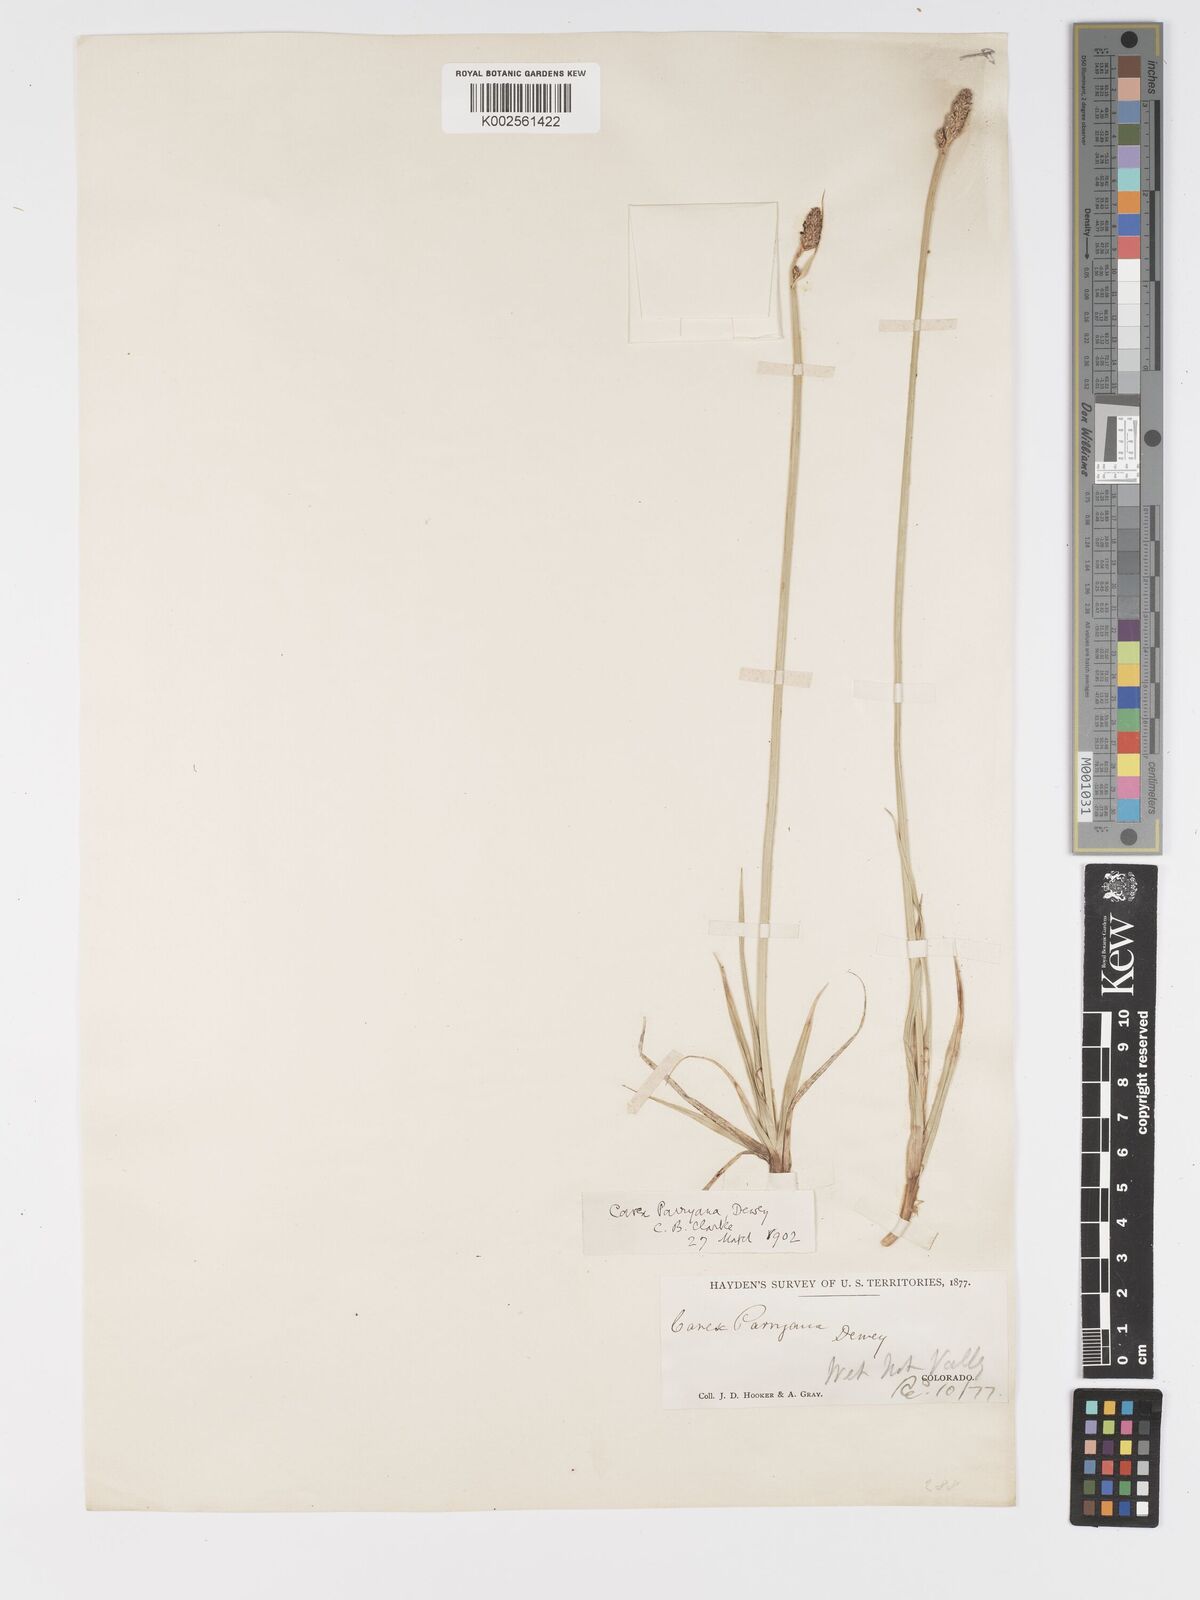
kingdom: Plantae
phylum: Tracheophyta
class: Liliopsida
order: Poales
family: Cyperaceae
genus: Carex
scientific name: Carex hallii
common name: Deer sedge
